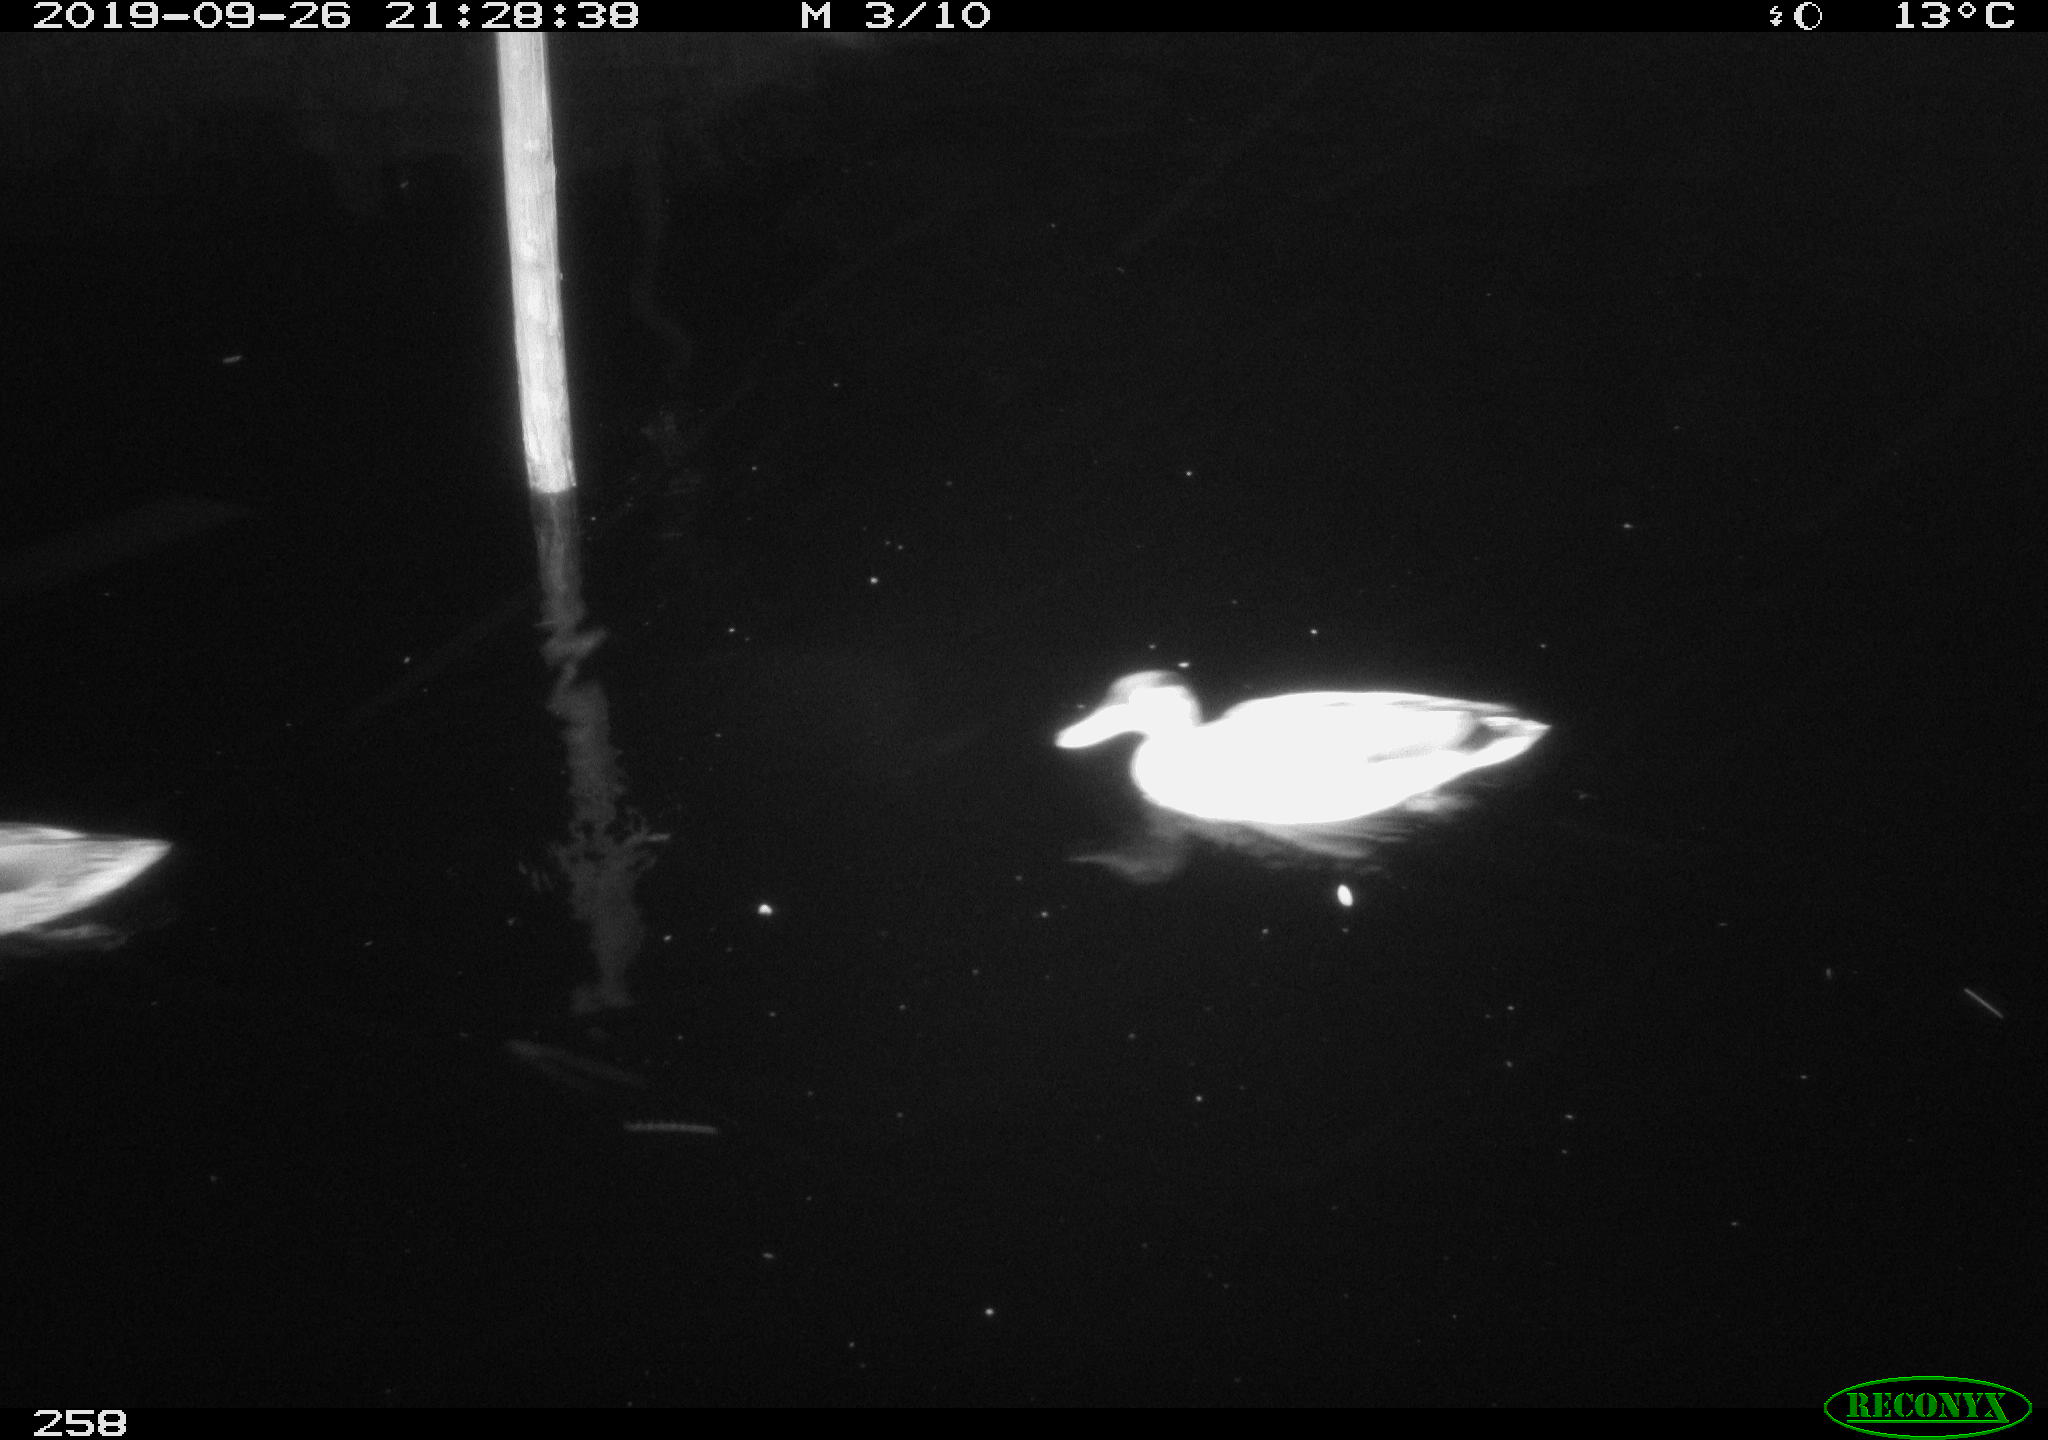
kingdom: Animalia
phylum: Chordata
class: Aves
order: Anseriformes
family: Anatidae
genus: Anas
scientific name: Anas platyrhynchos
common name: Mallard
